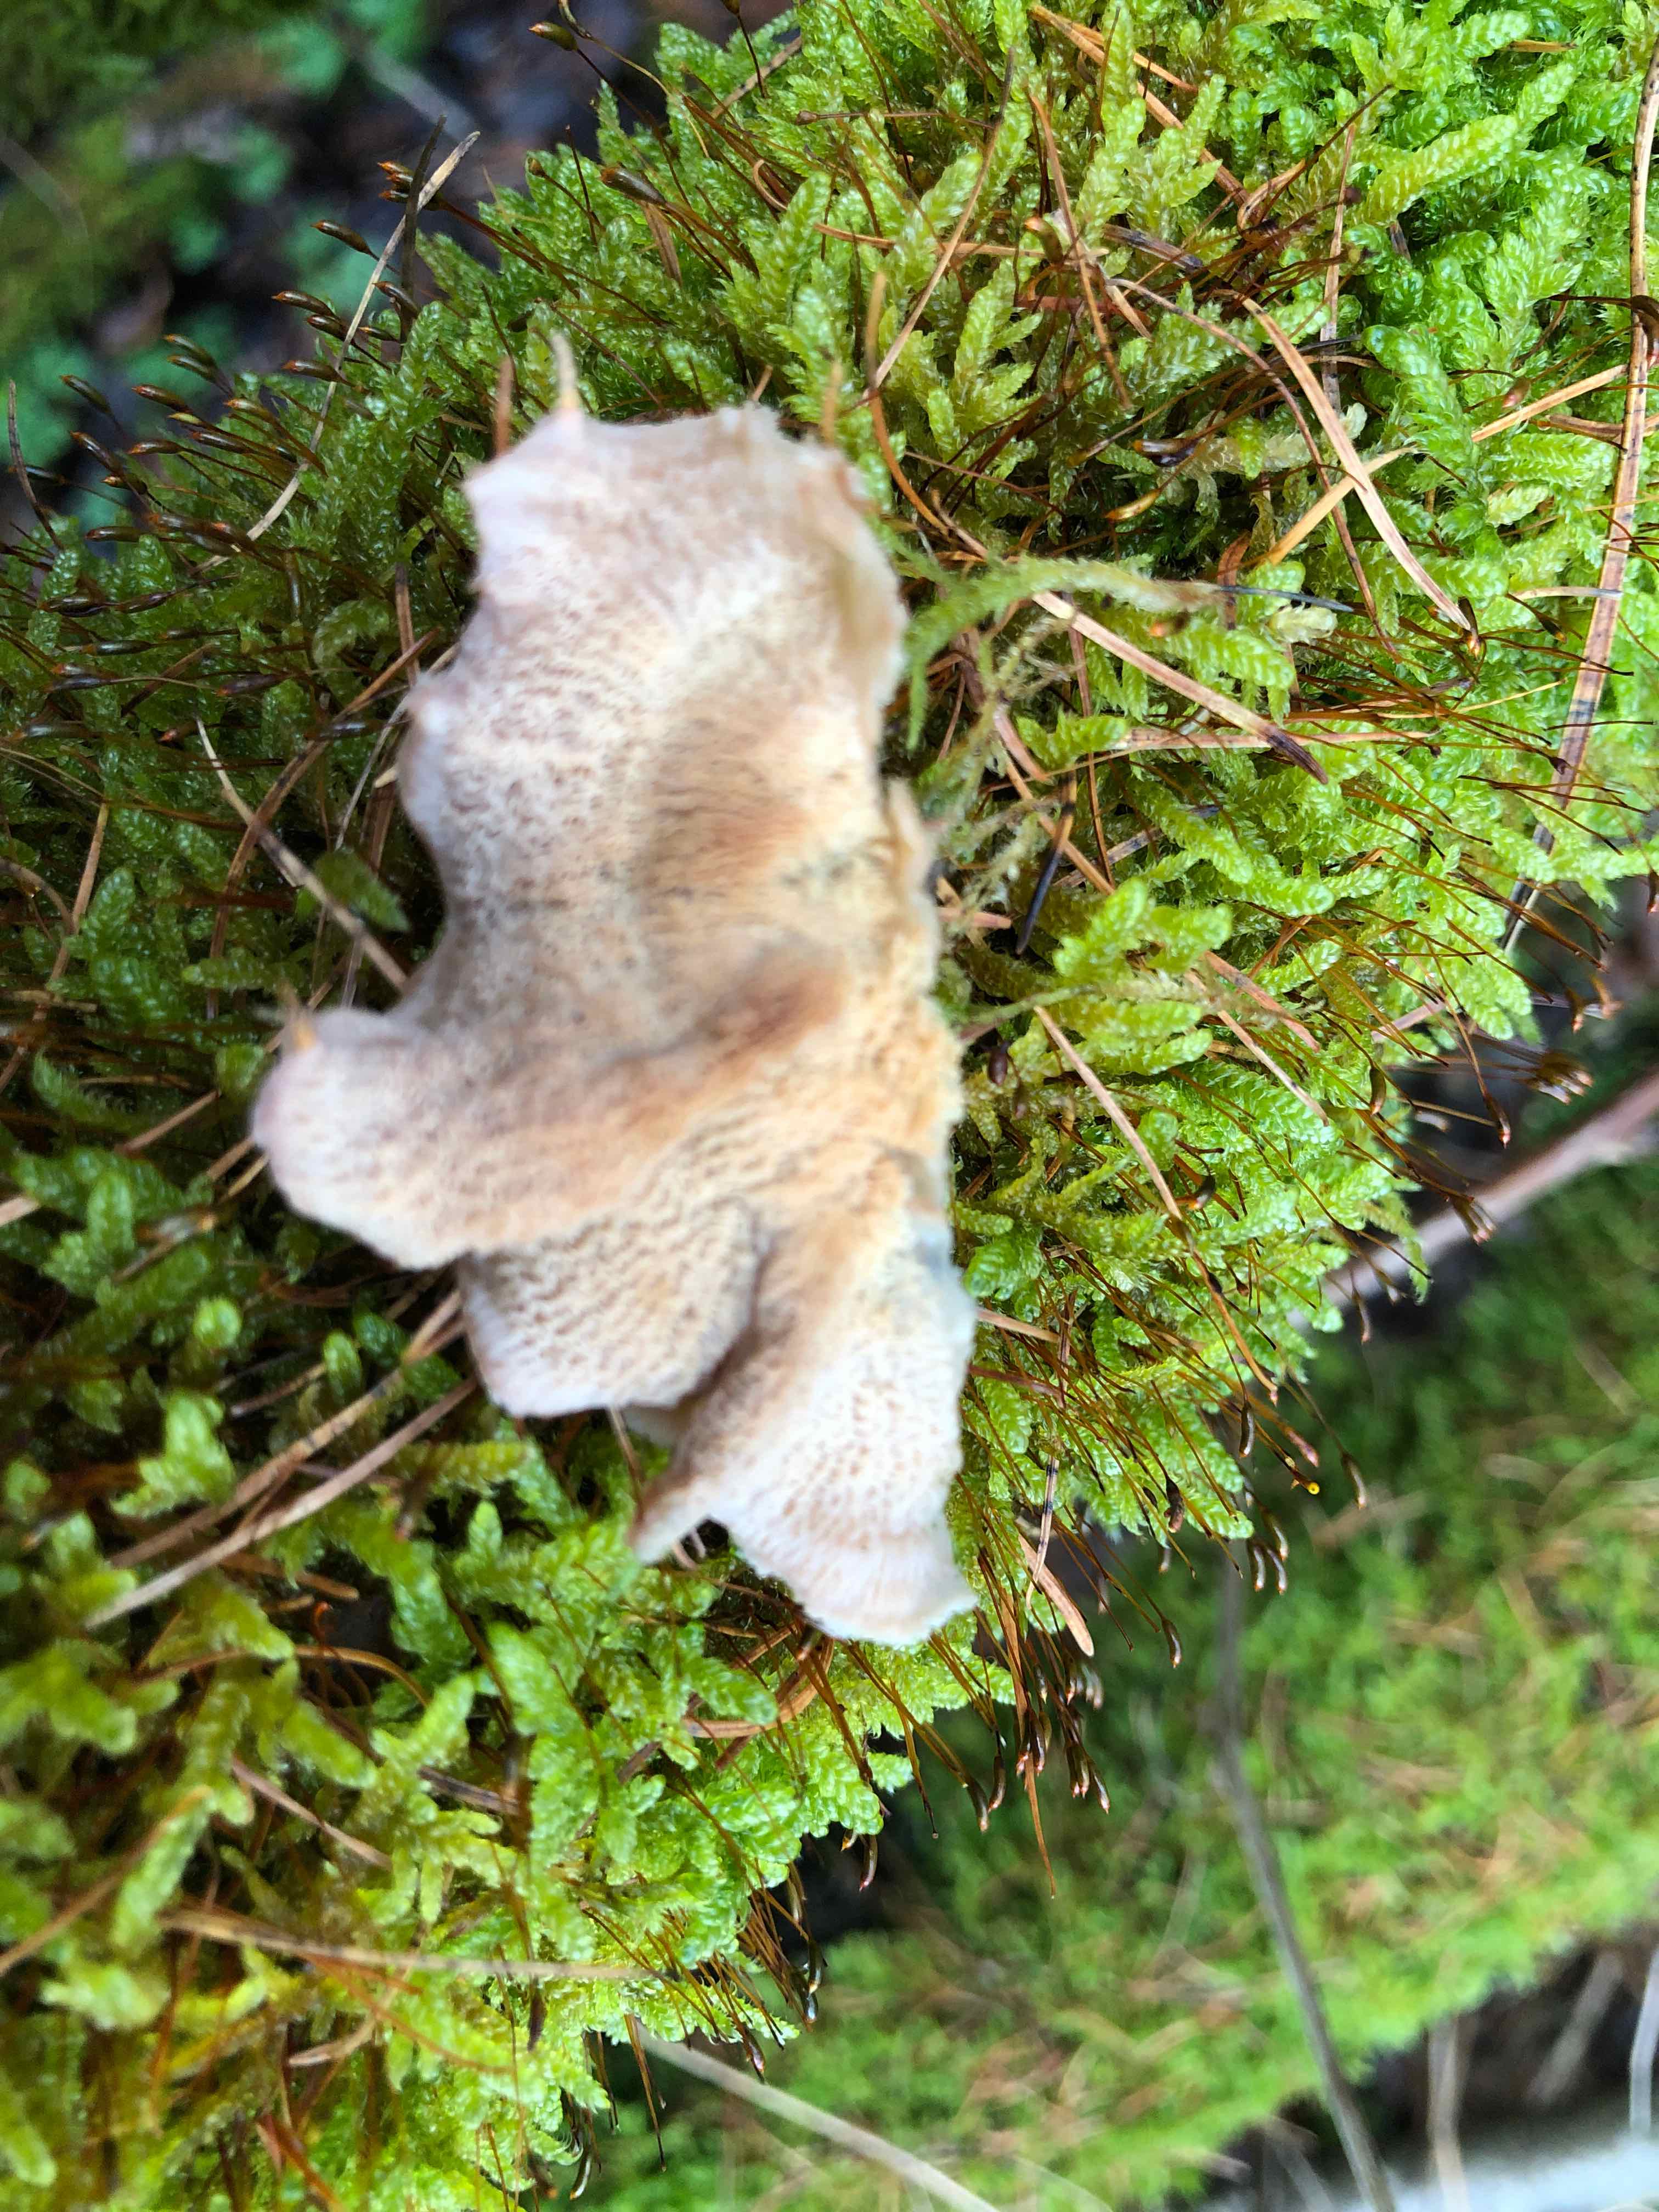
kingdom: Fungi
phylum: Basidiomycota
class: Agaricomycetes
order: Polyporales
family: Meruliaceae
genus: Phlebia
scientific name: Phlebia tremellosa
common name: bævrende åresvamp
